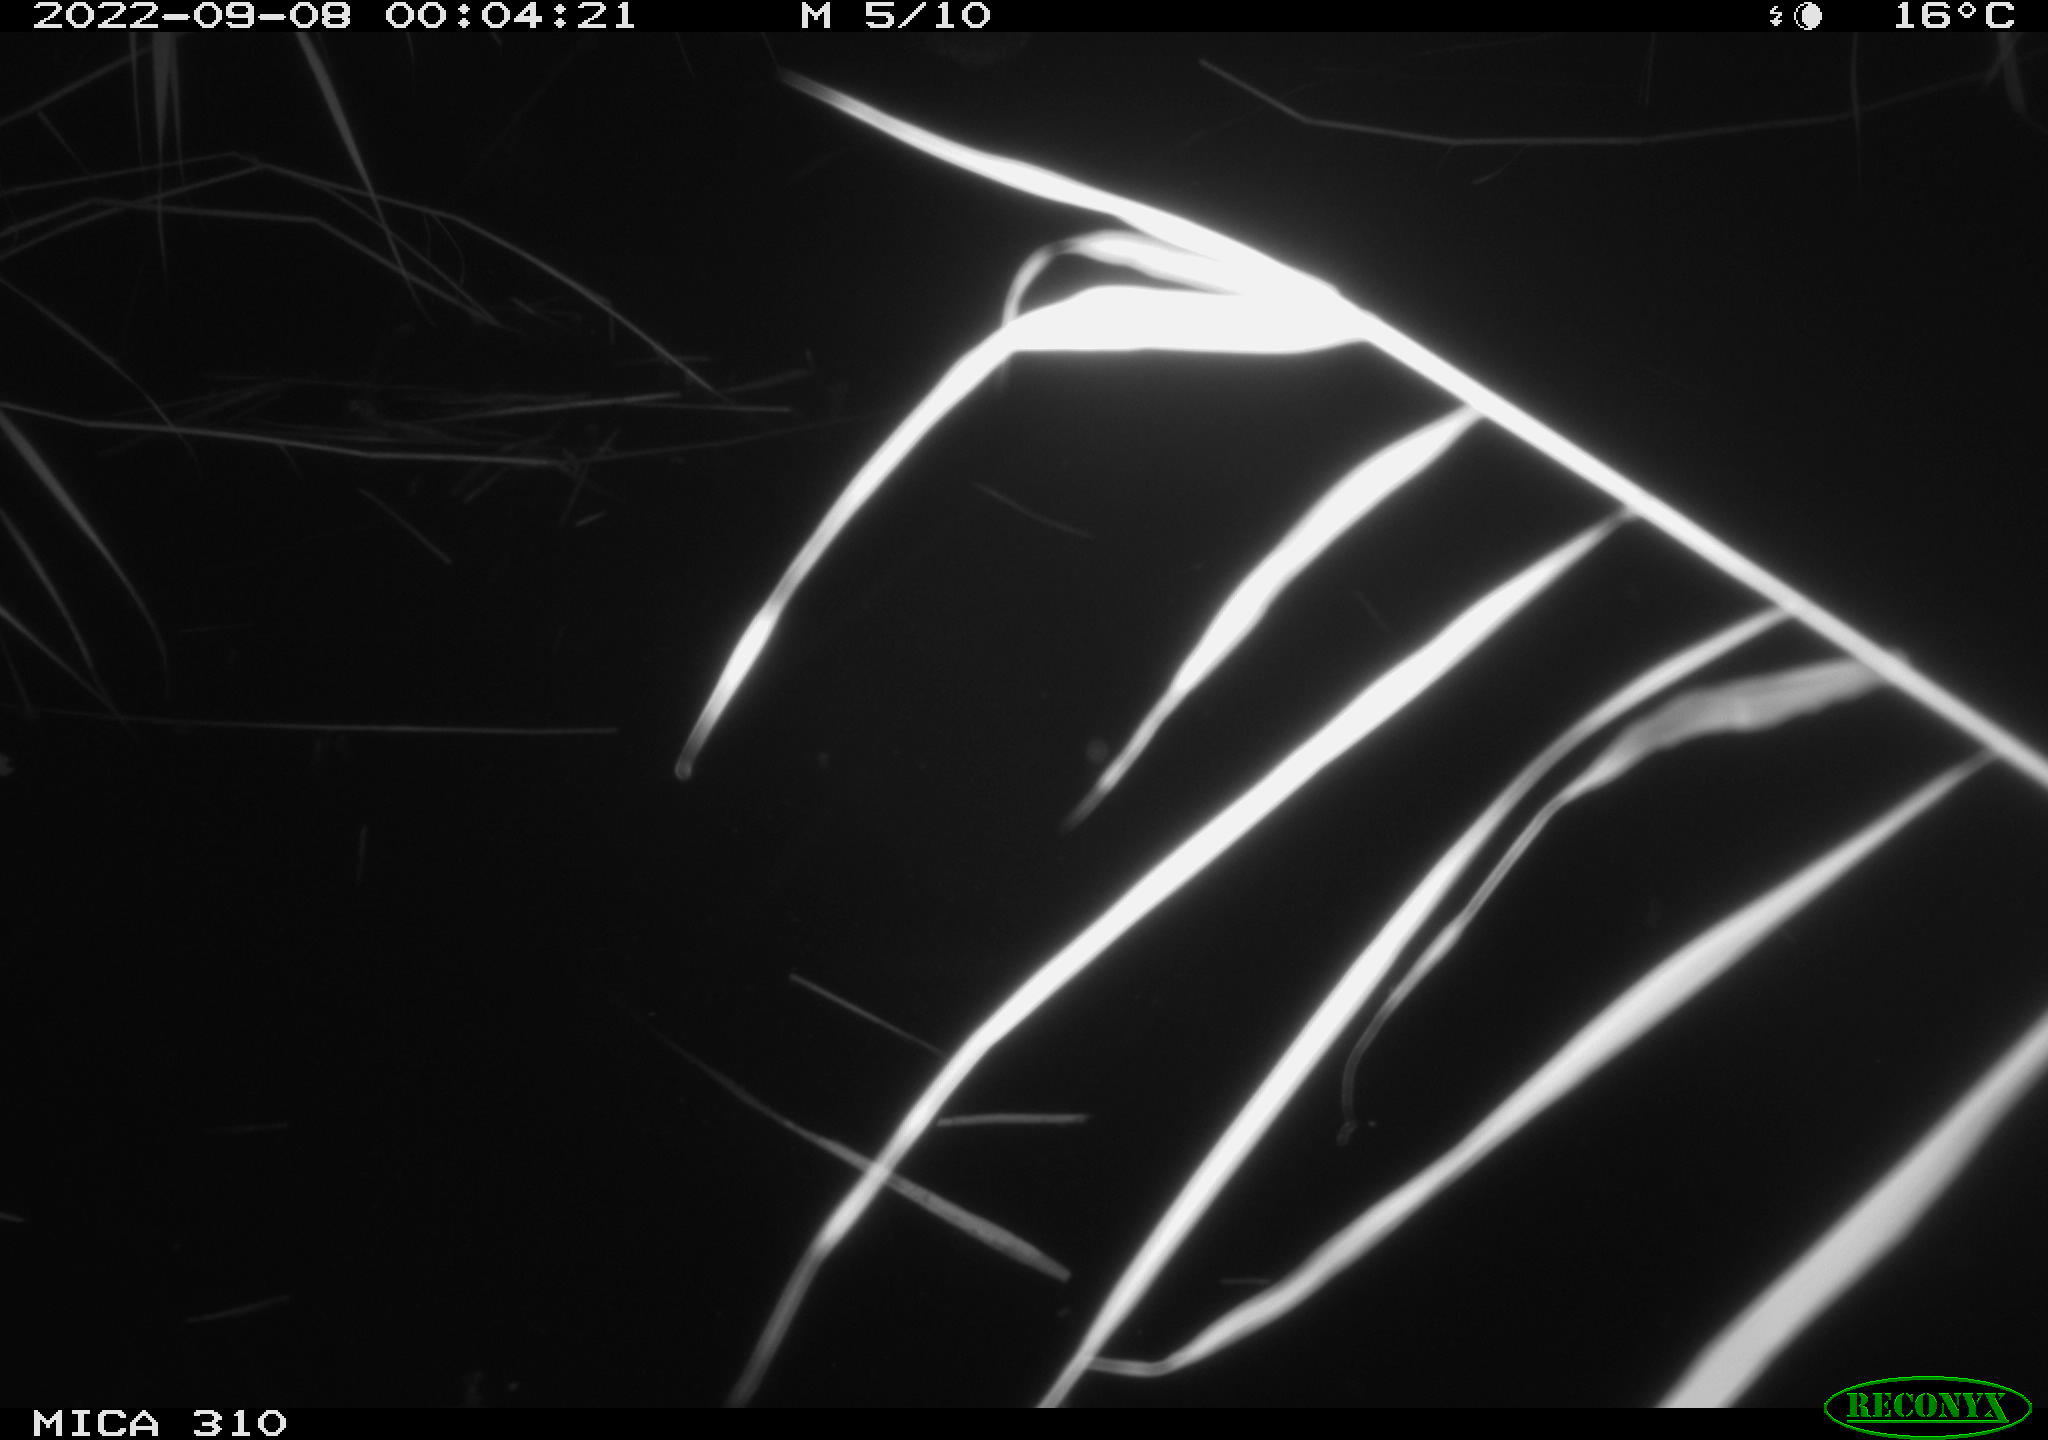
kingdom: Animalia
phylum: Chordata
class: Aves
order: Anseriformes
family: Anatidae
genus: Anas
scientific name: Anas
